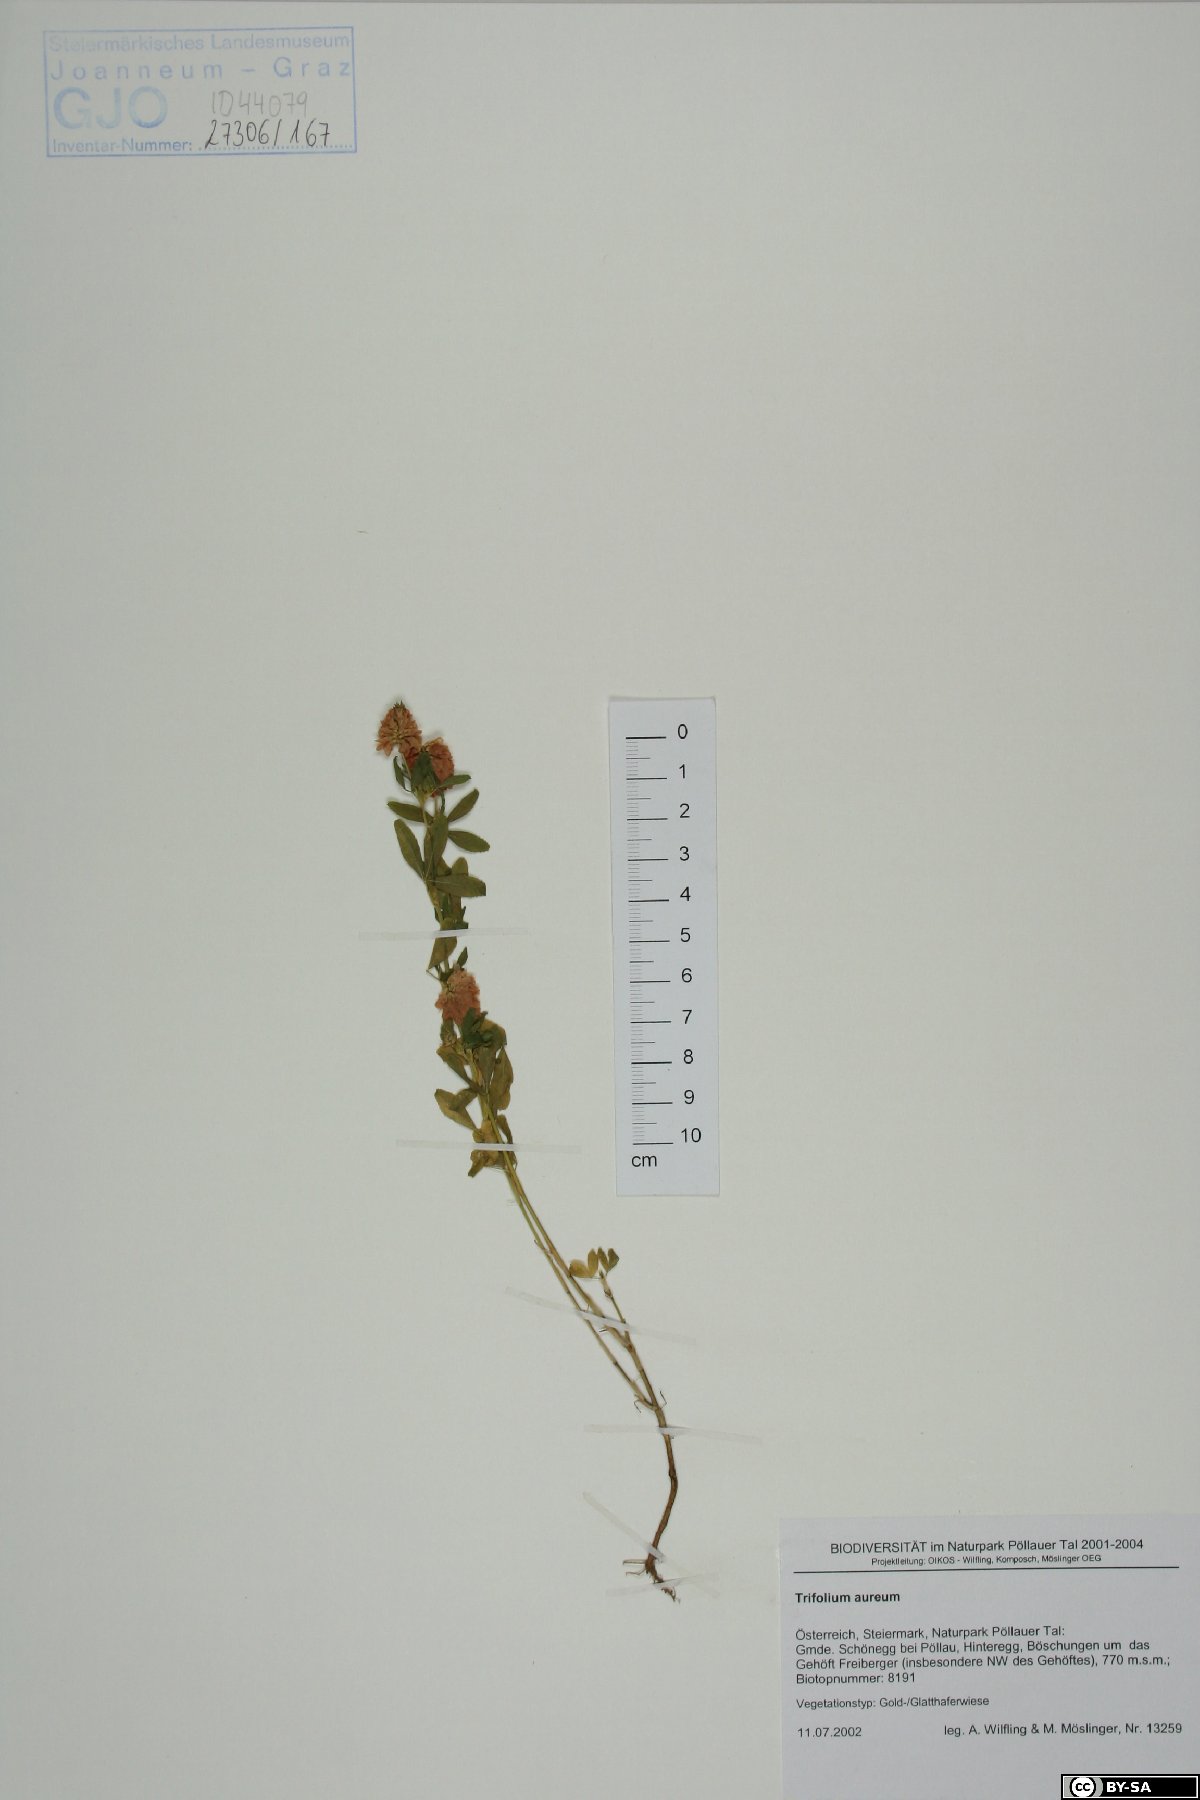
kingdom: Plantae
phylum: Tracheophyta
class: Magnoliopsida
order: Fabales
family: Fabaceae
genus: Trifolium
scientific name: Trifolium aureum
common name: Golden clover
